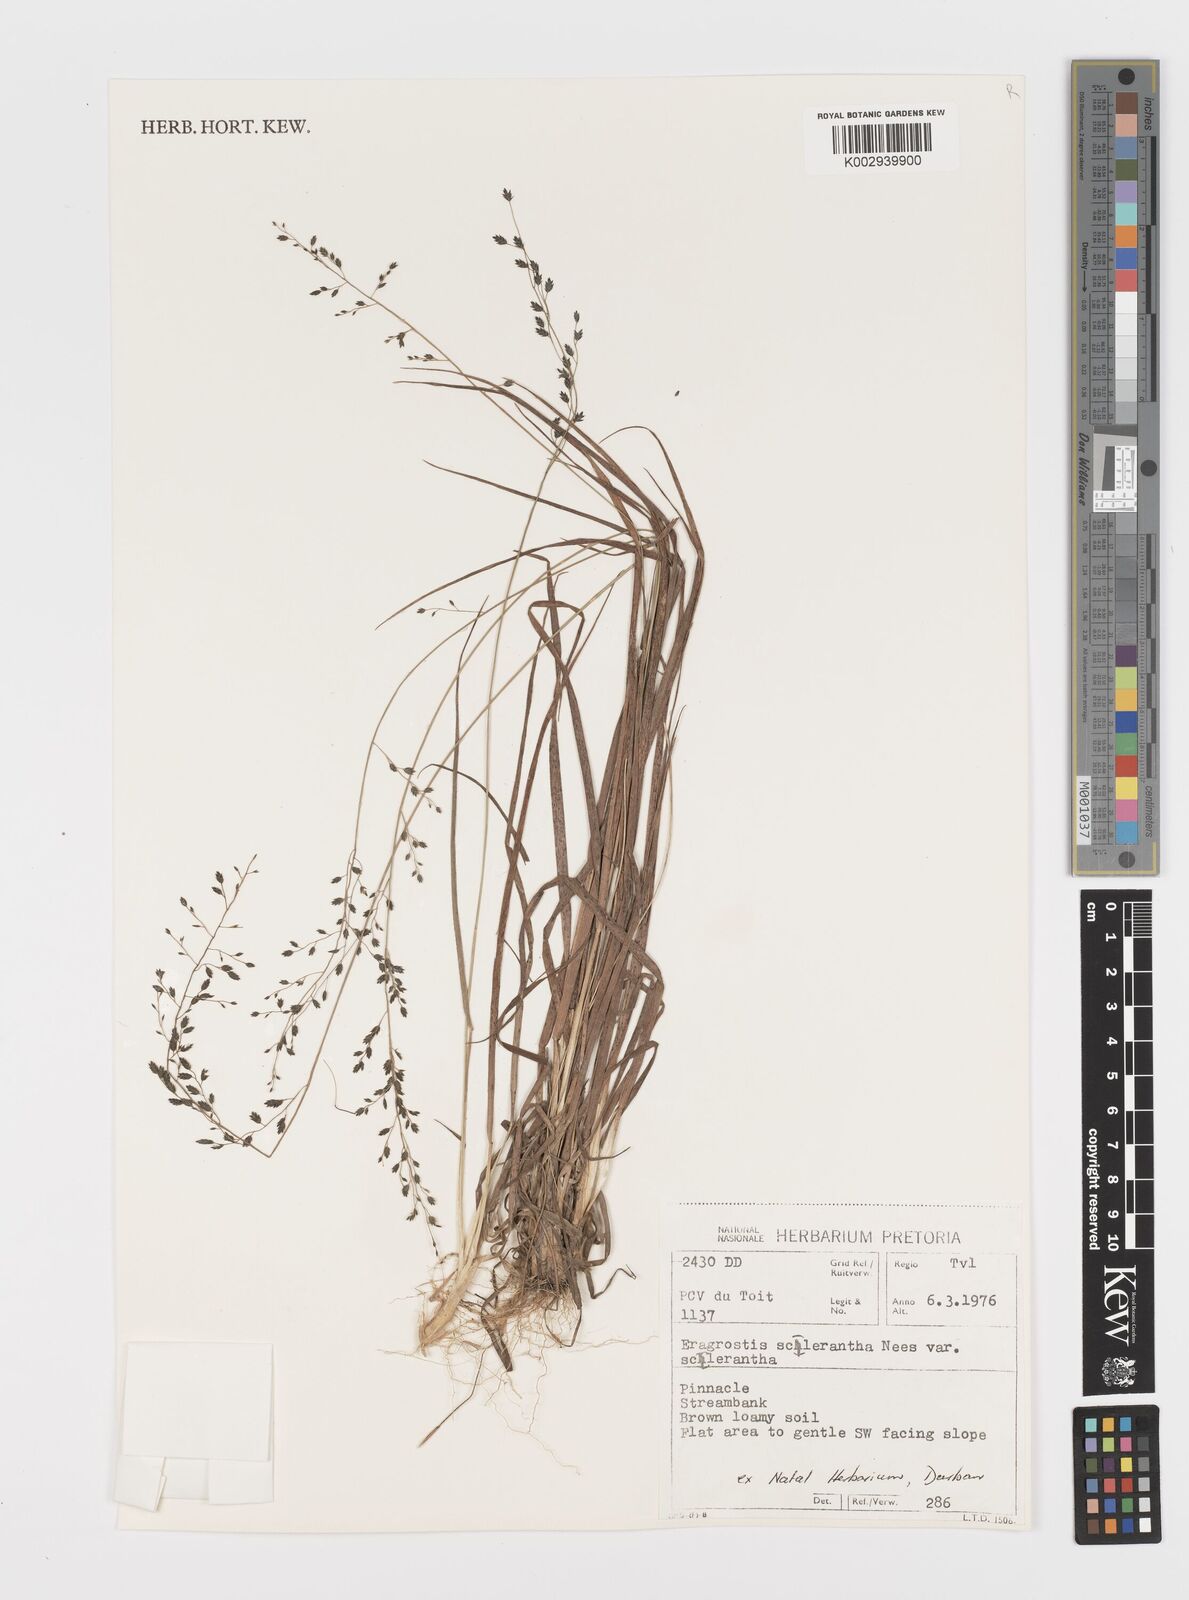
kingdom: Plantae
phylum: Tracheophyta
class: Liliopsida
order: Poales
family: Poaceae
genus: Eragrostis
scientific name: Eragrostis sclerantha
